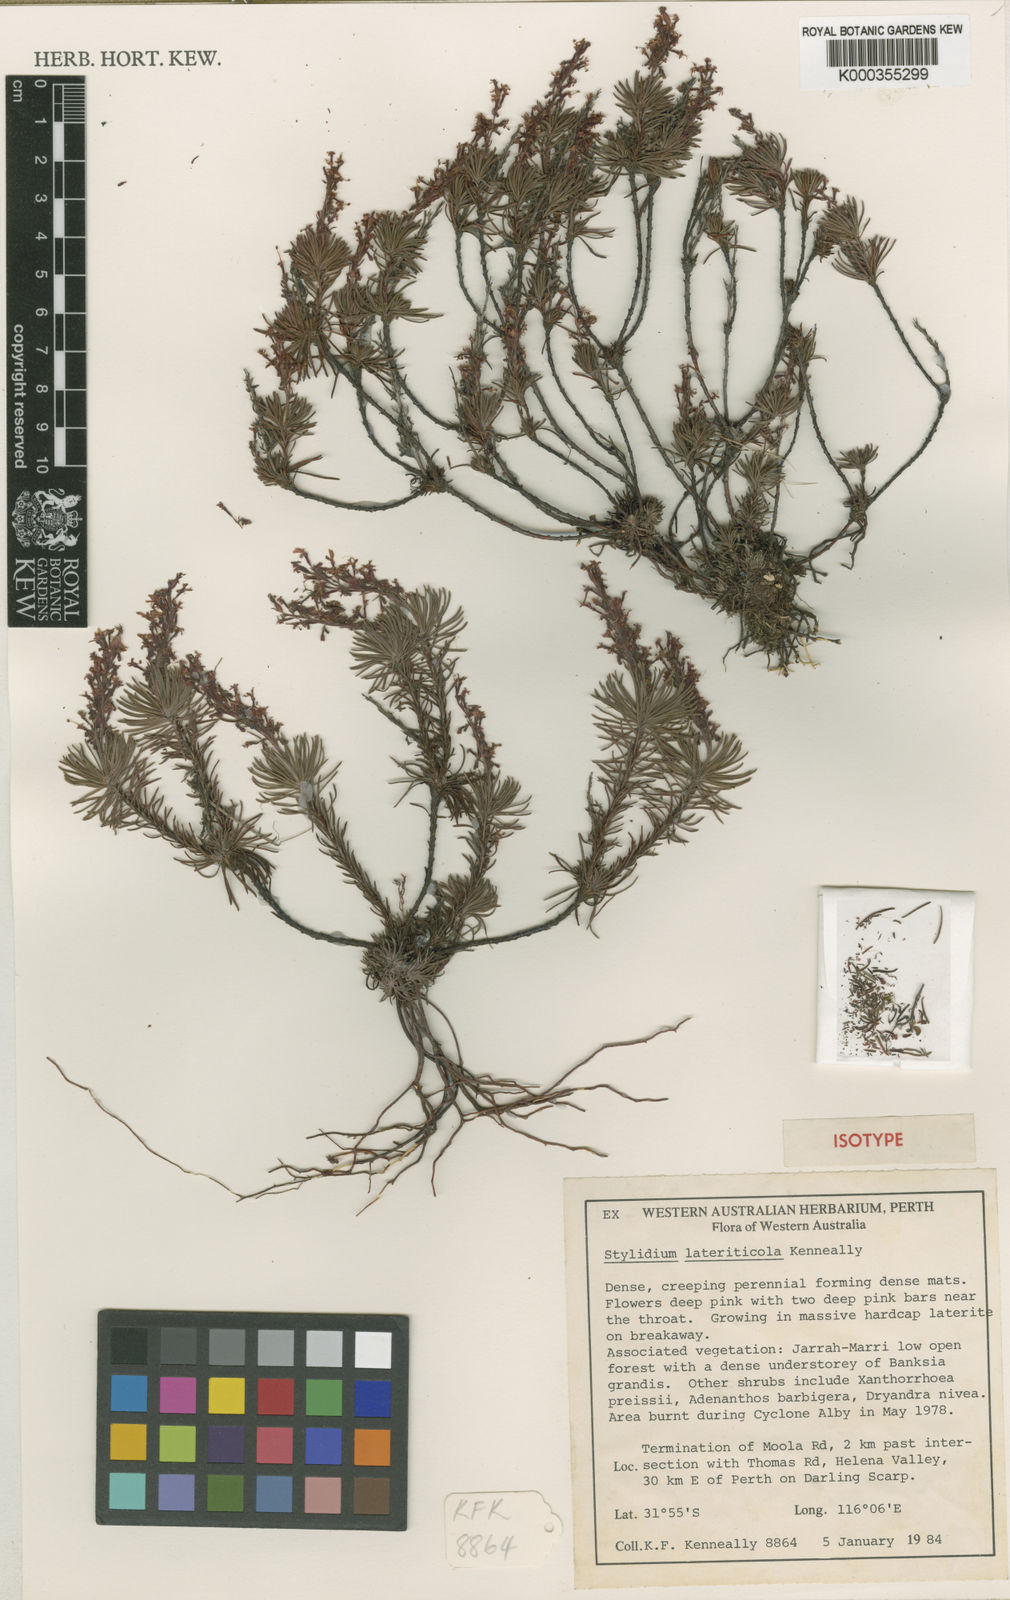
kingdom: Plantae
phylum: Tracheophyta
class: Magnoliopsida
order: Asterales
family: Stylidiaceae
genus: Stylidium
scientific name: Stylidium lateriticola
